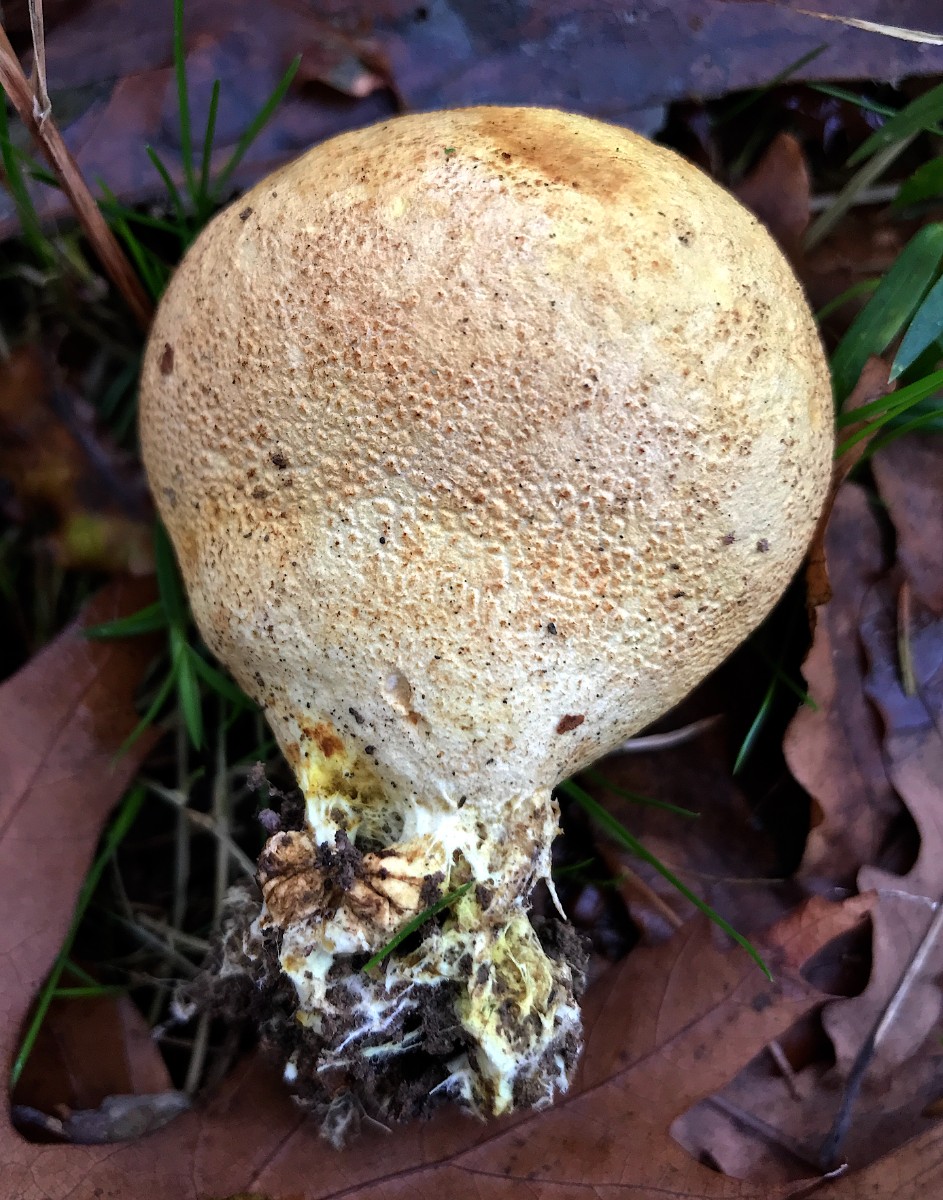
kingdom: Fungi
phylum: Basidiomycota
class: Agaricomycetes
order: Boletales
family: Sclerodermataceae
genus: Scleroderma
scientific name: Scleroderma verrucosum
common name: stilket bruskbold
